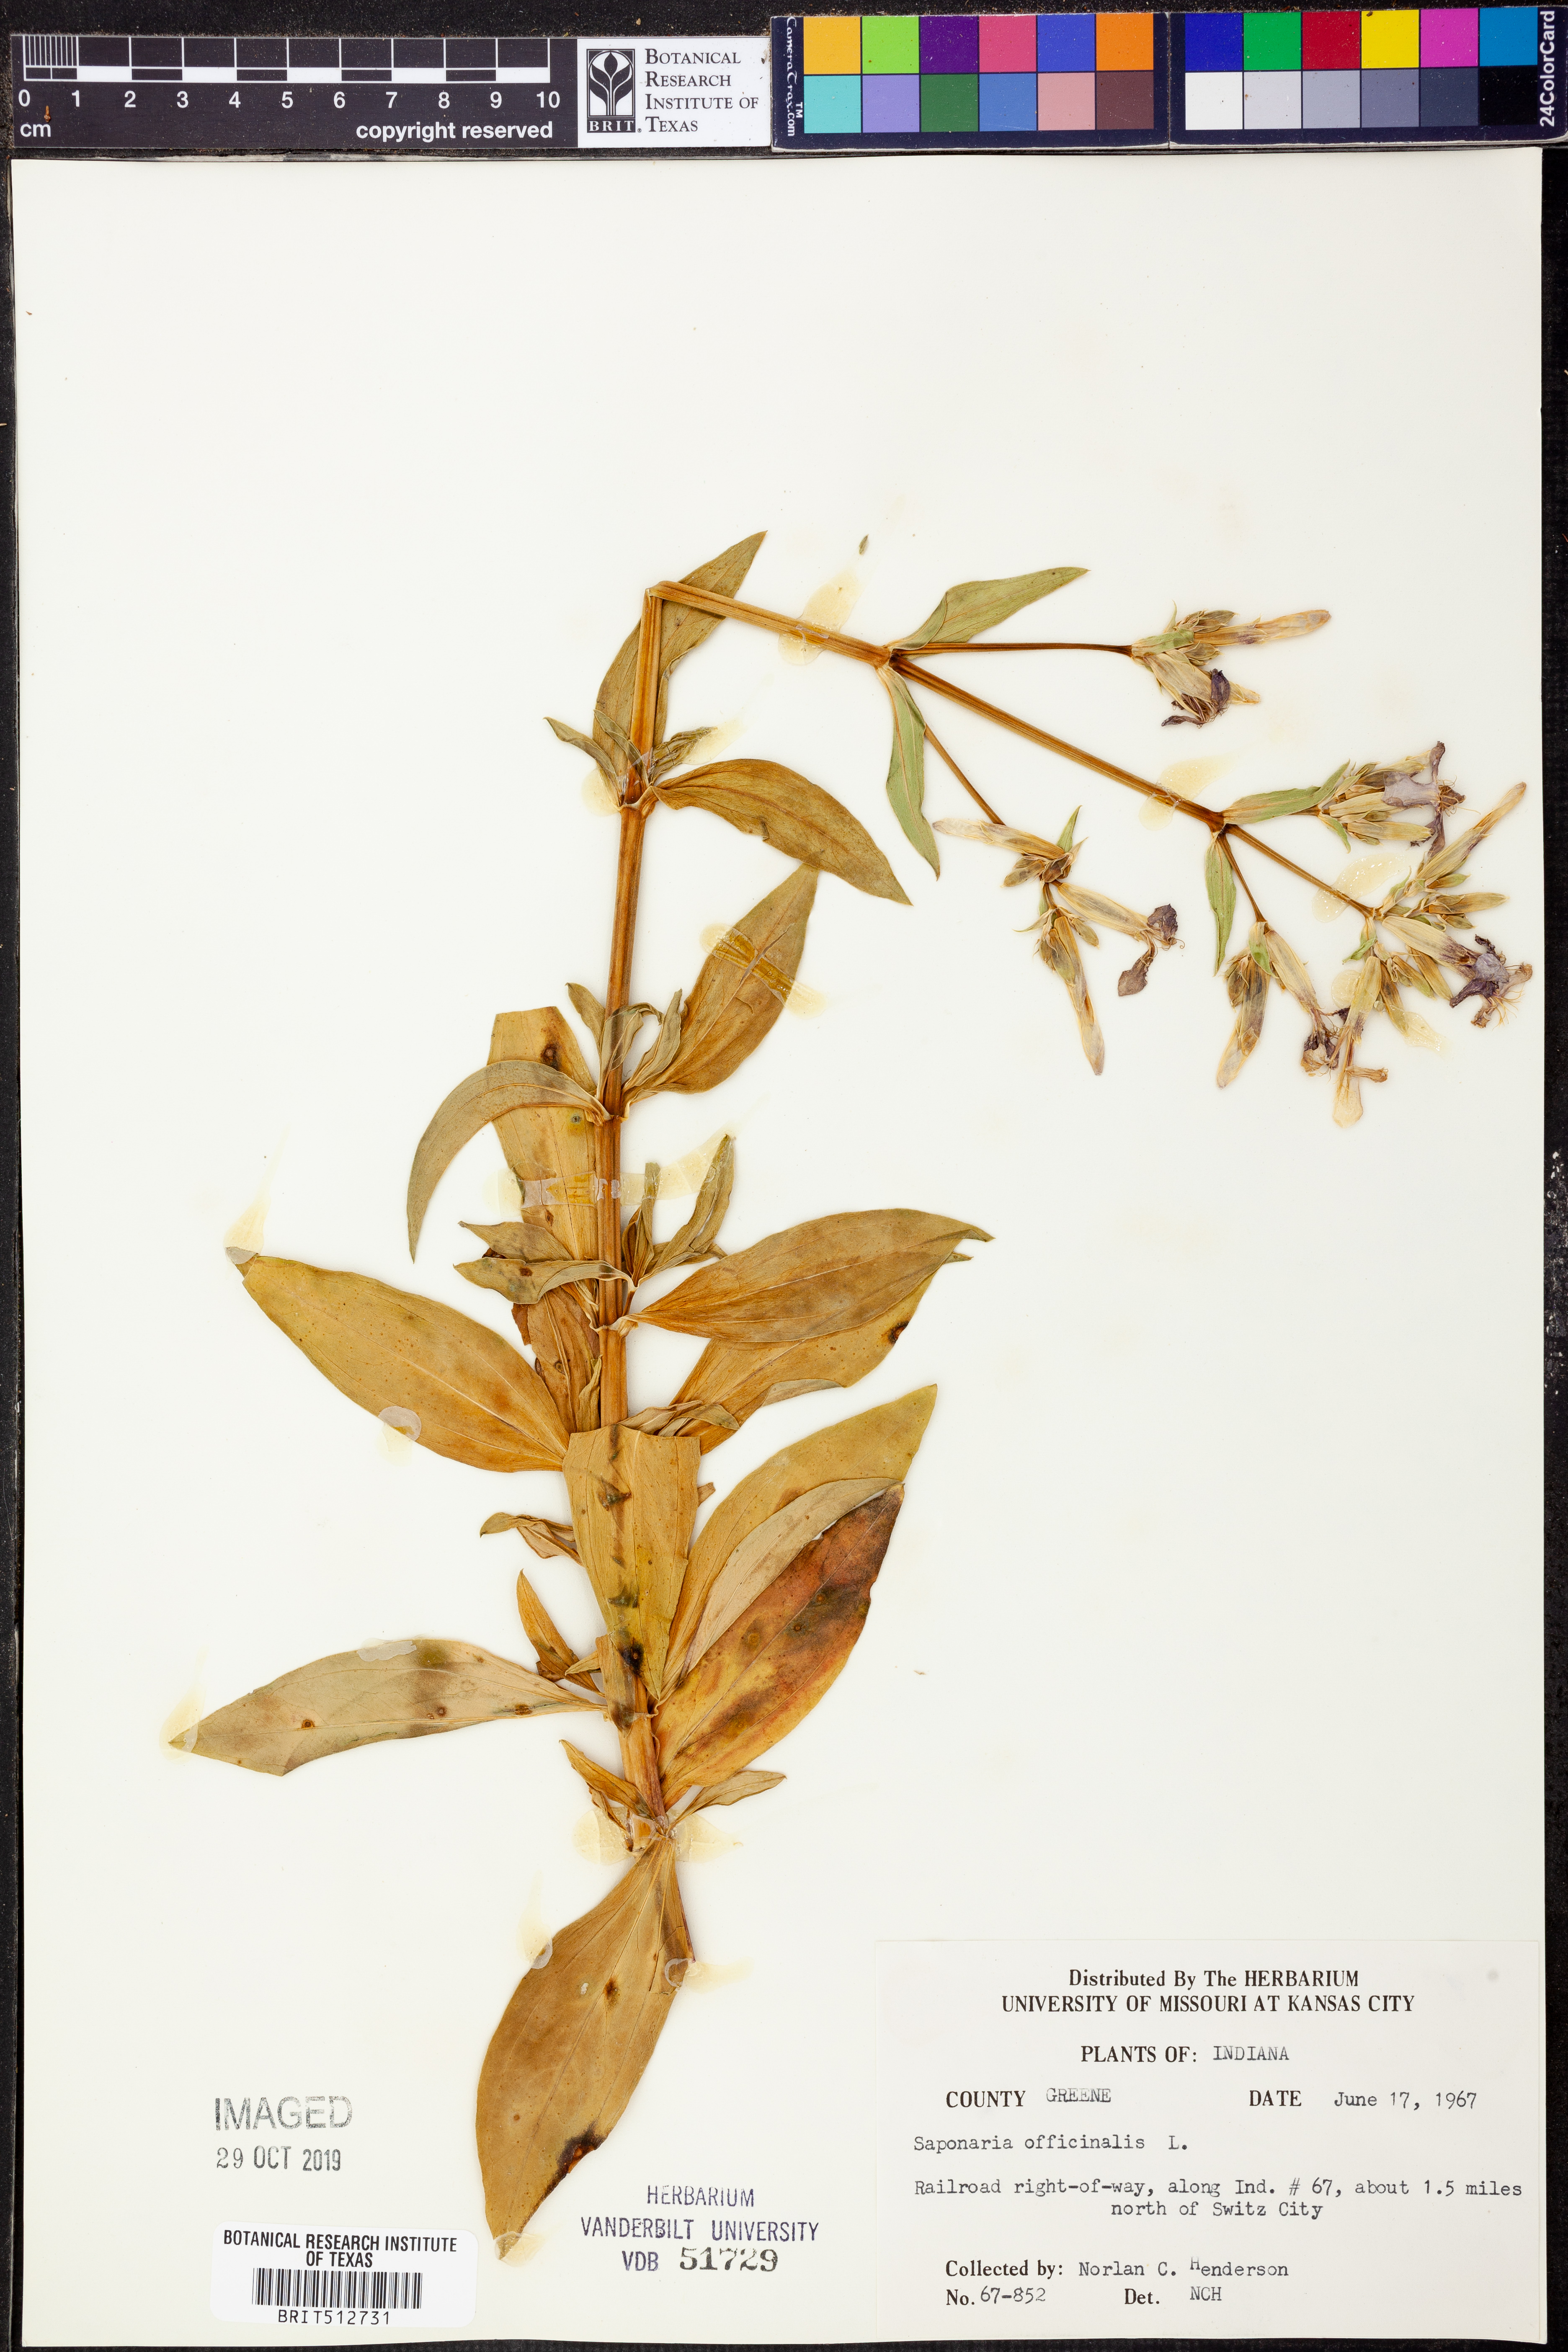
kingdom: Plantae
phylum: Tracheophyta
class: Magnoliopsida
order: Caryophyllales
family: Caryophyllaceae
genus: Saponaria
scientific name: Saponaria officinalis
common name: Soapwort
